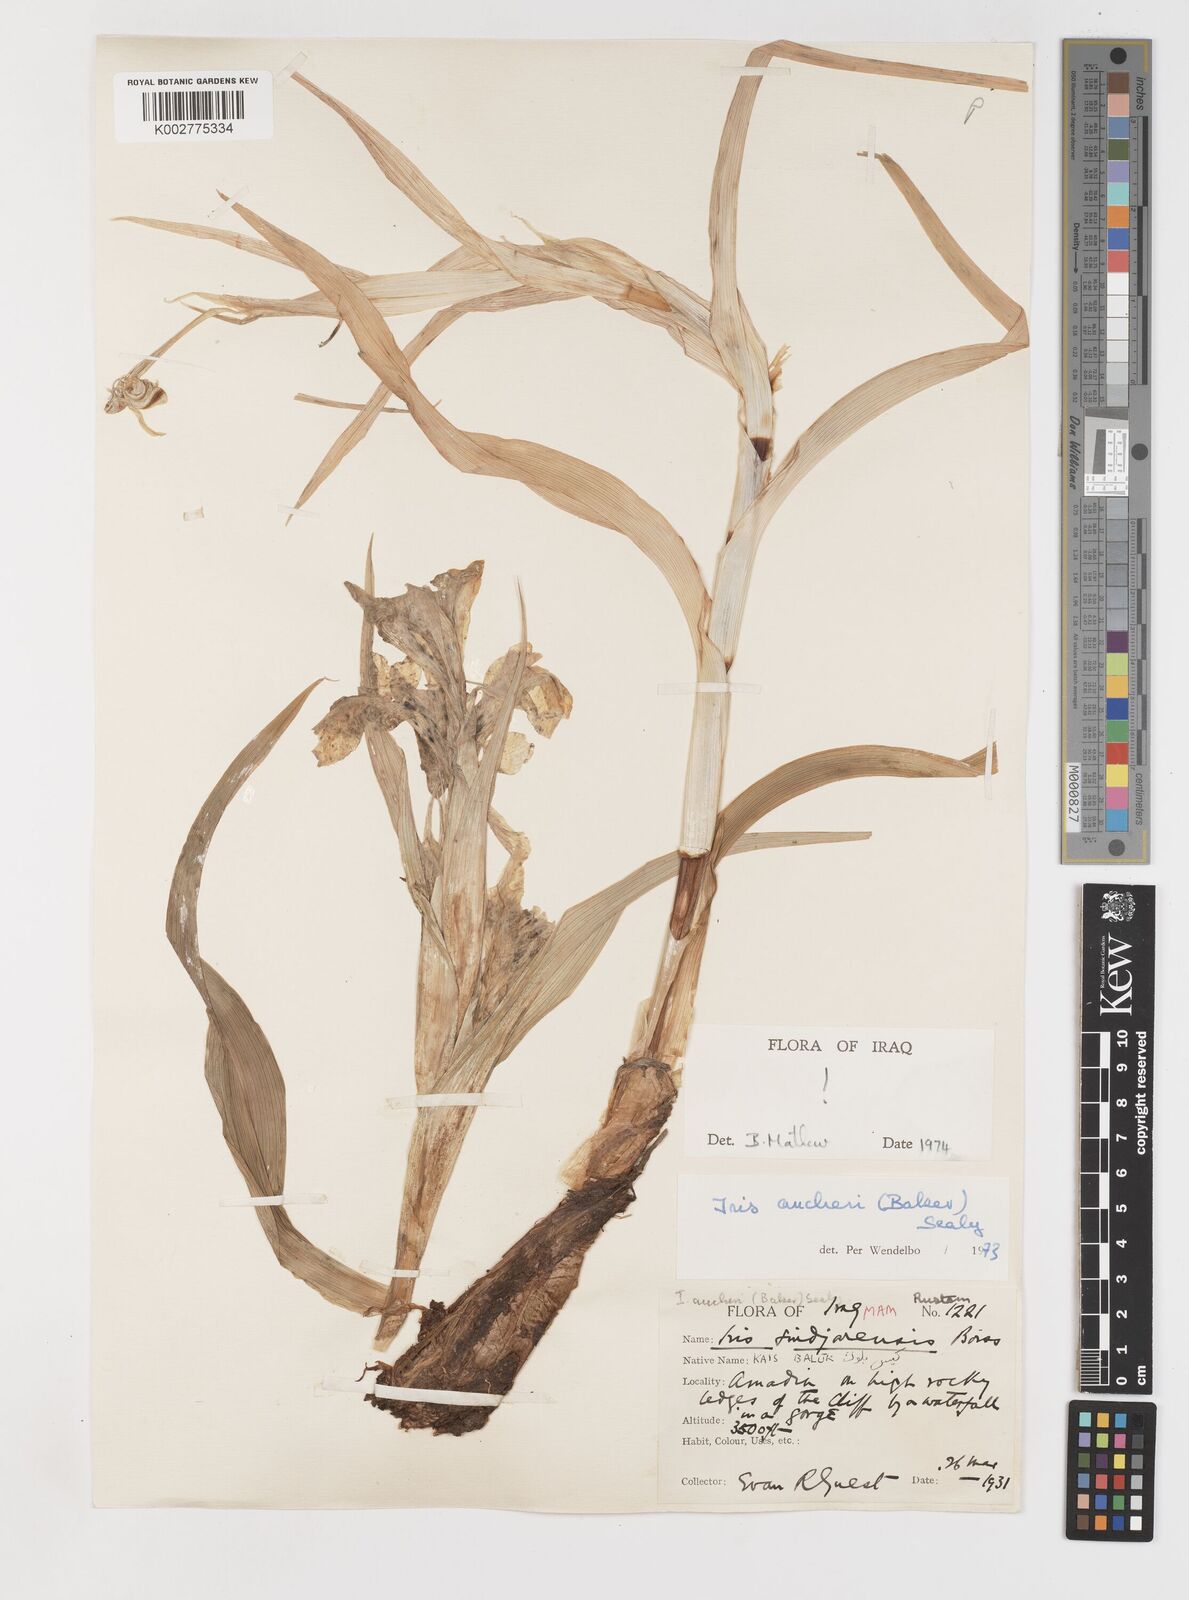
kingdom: Plantae
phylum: Tracheophyta
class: Liliopsida
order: Asparagales
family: Iridaceae
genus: Iris
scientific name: Iris aucheri
